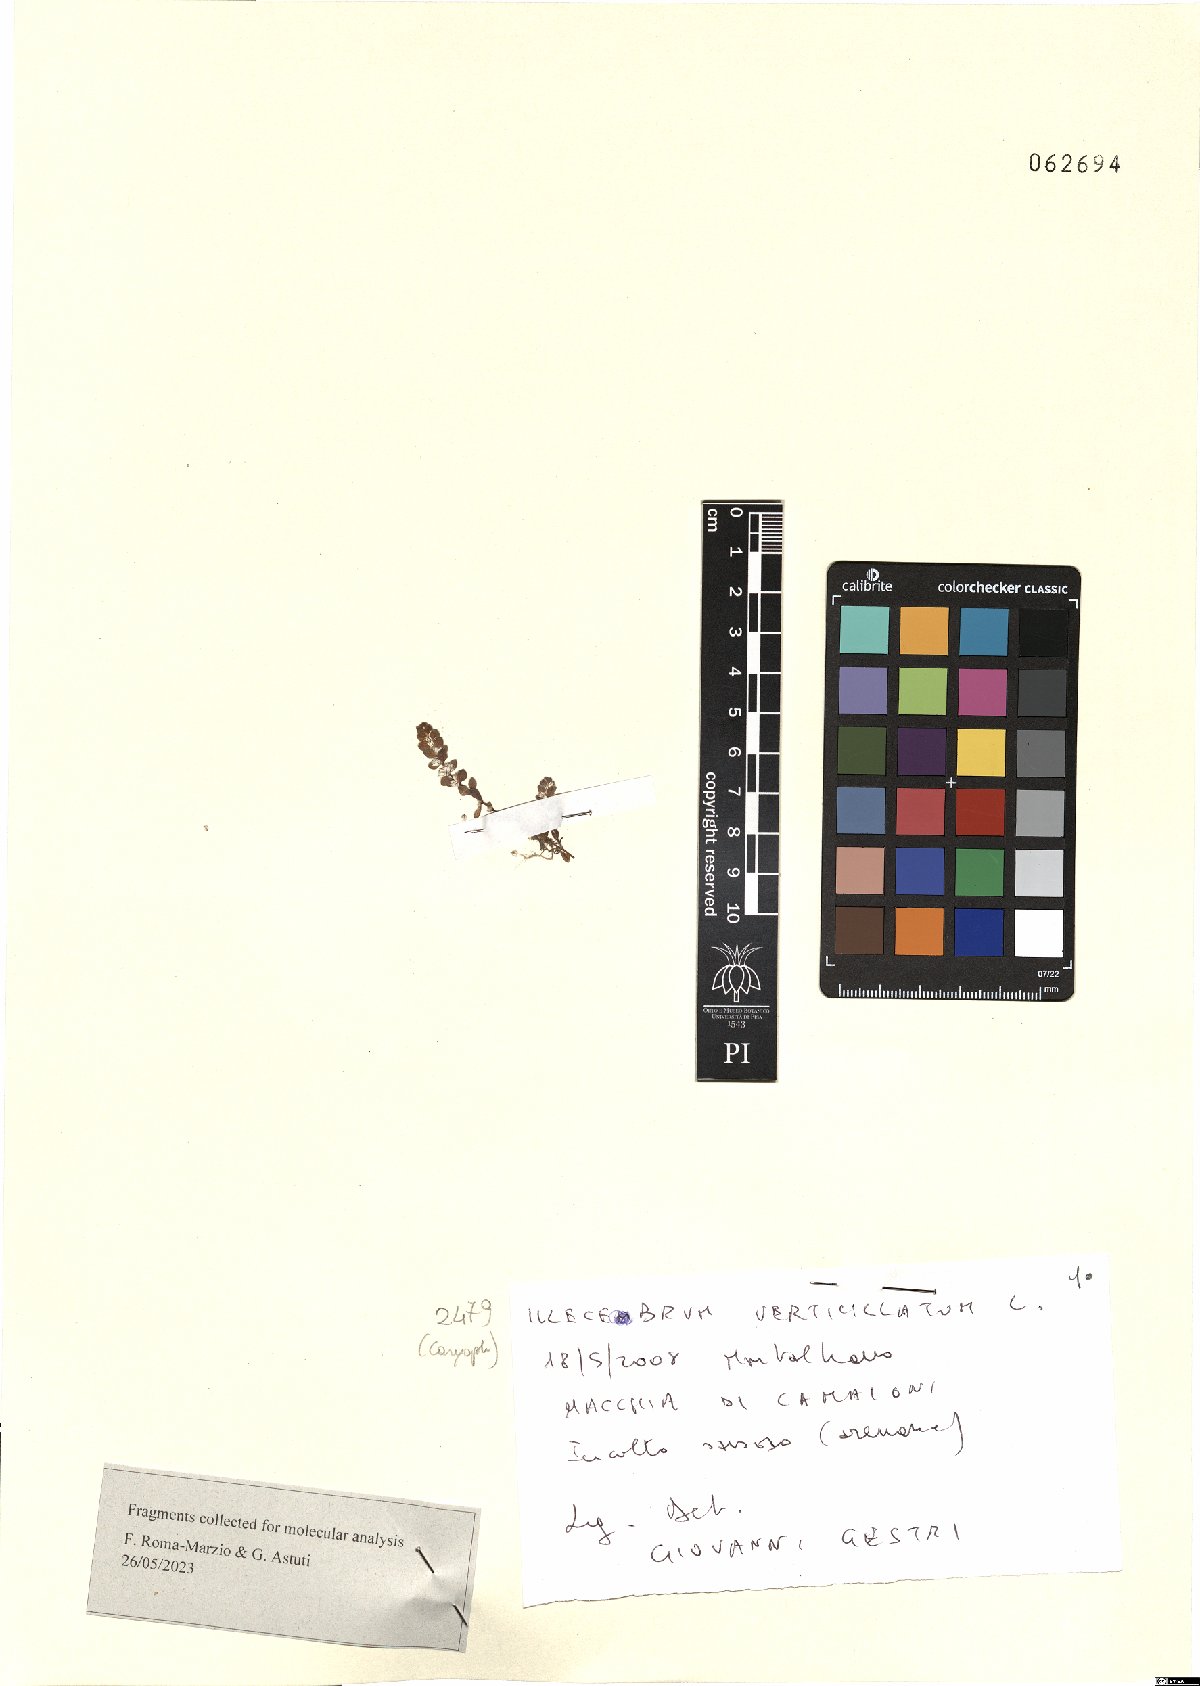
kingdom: Plantae
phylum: Tracheophyta
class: Magnoliopsida
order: Caryophyllales
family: Caryophyllaceae
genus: Illecebrum
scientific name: Illecebrum verticillatum
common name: Coral necklace
